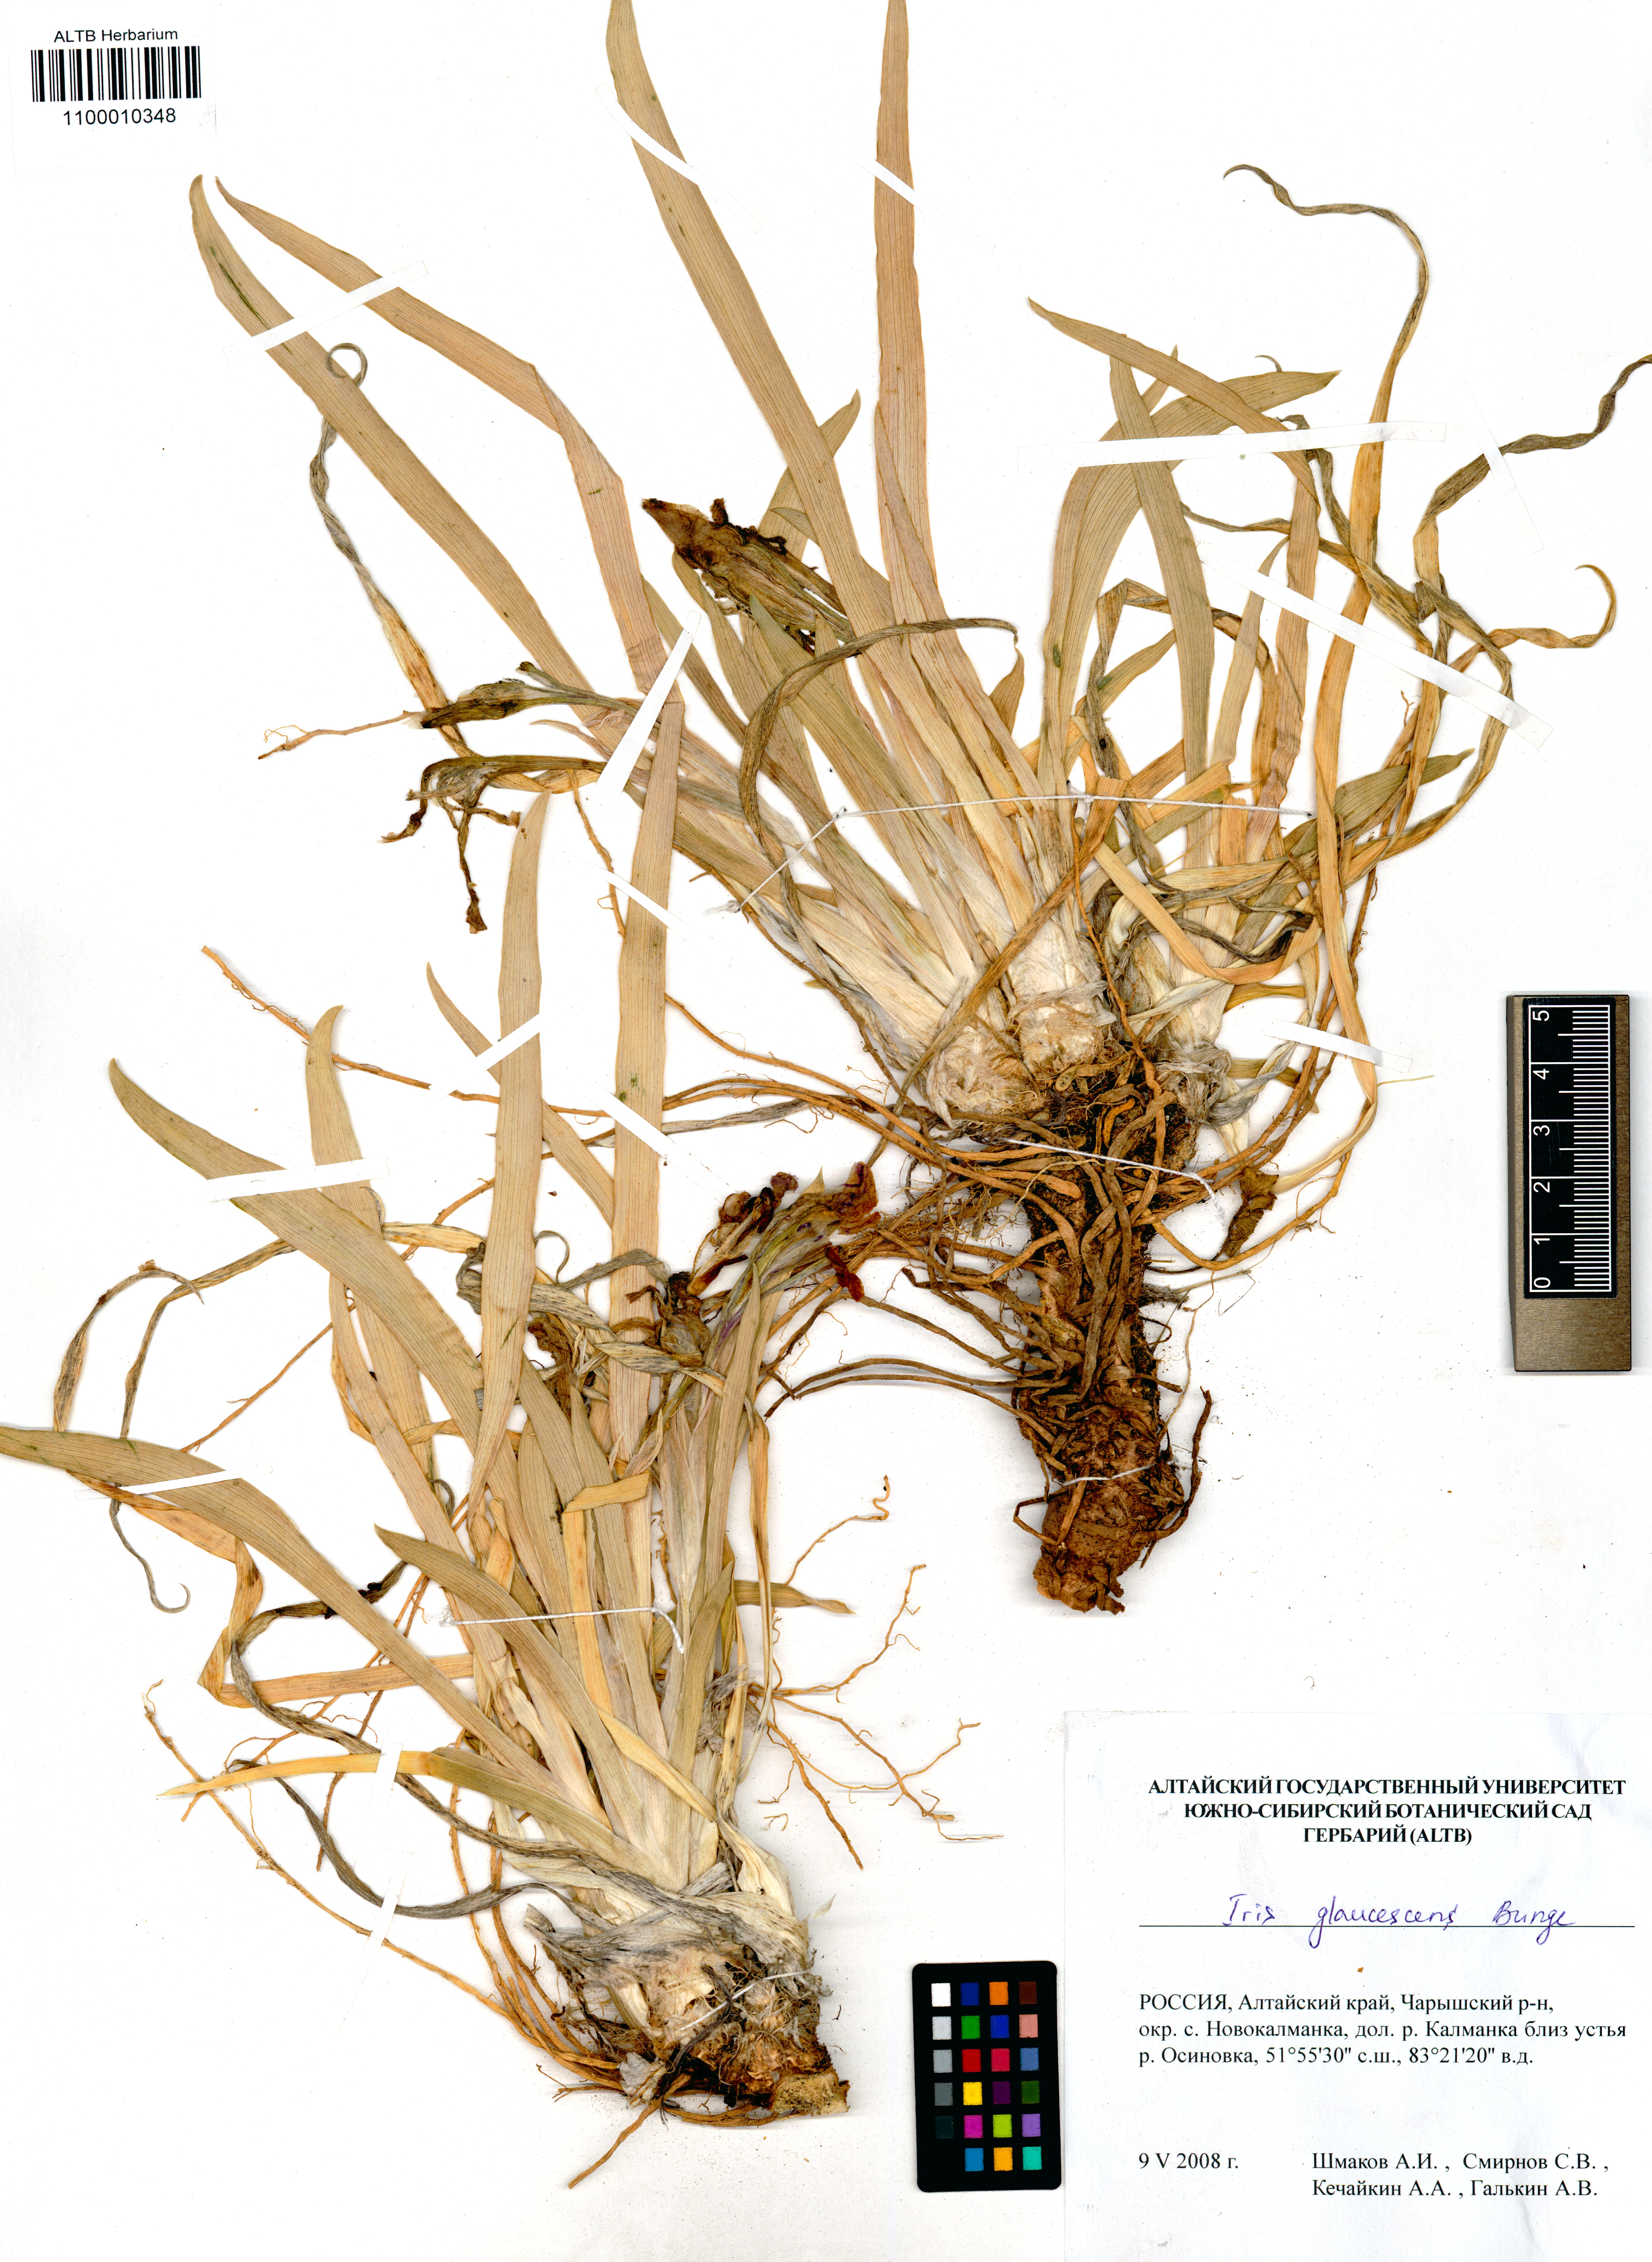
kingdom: Plantae
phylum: Tracheophyta
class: Liliopsida
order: Asparagales
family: Iridaceae
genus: Iris
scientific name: Iris glaucescens
